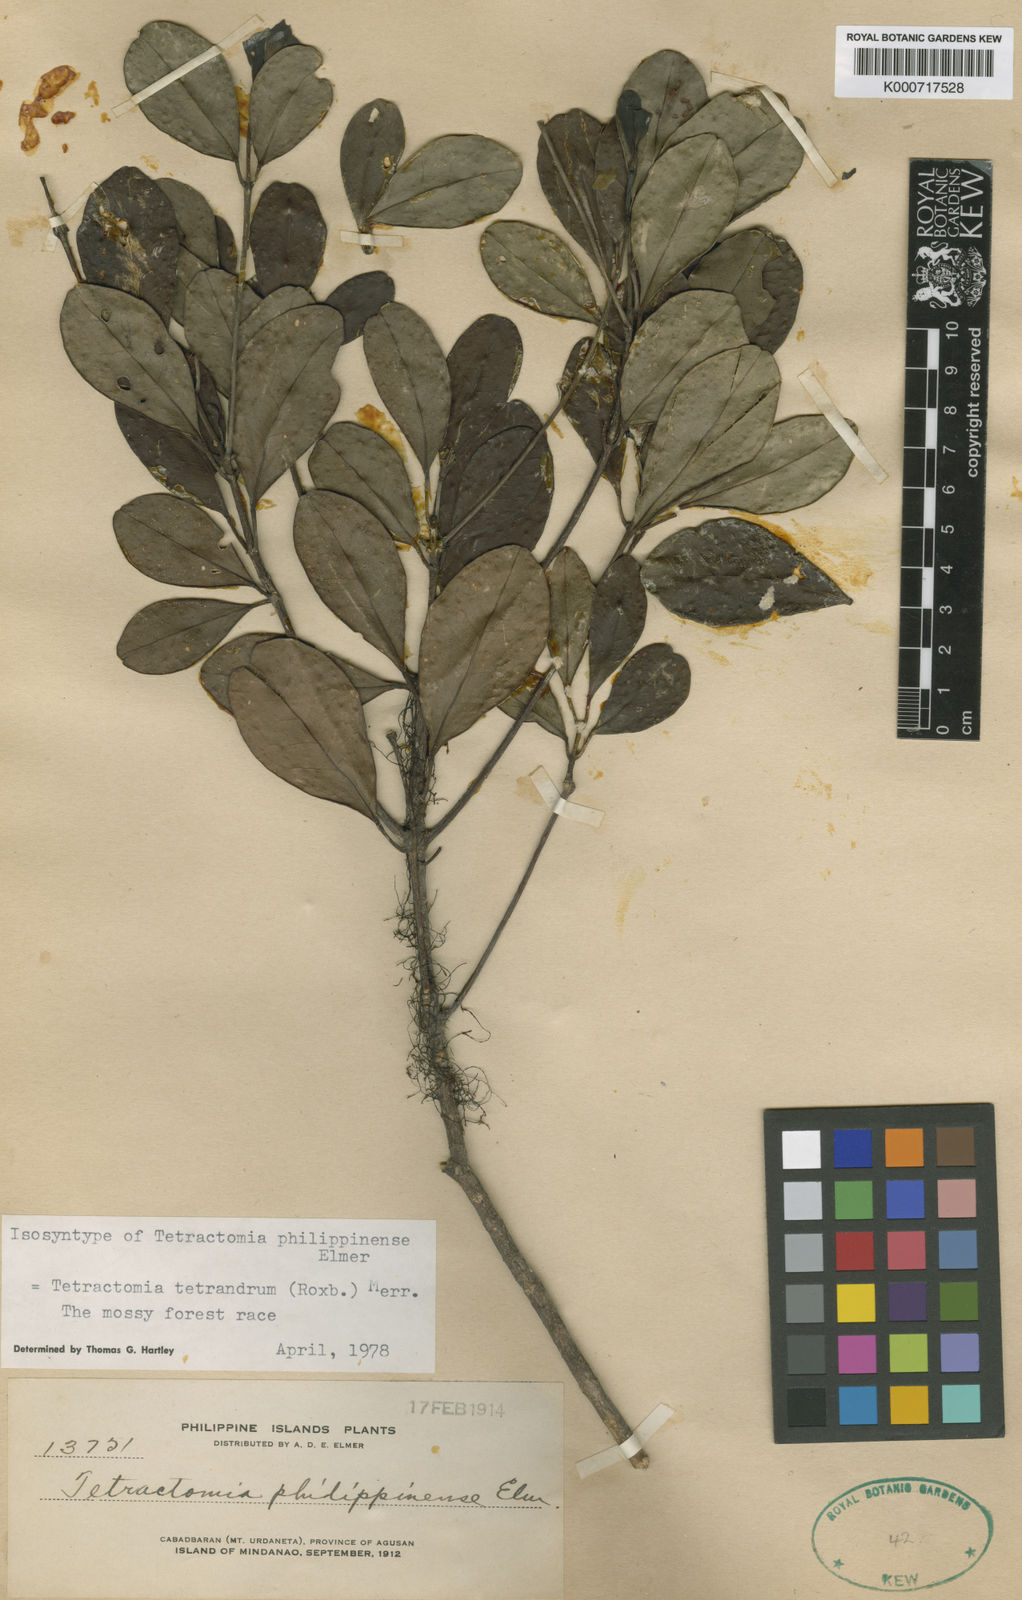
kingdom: Plantae
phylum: Tracheophyta
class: Magnoliopsida
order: Sapindales
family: Rutaceae
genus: Tetractomia
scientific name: Tetractomia tetrandra
